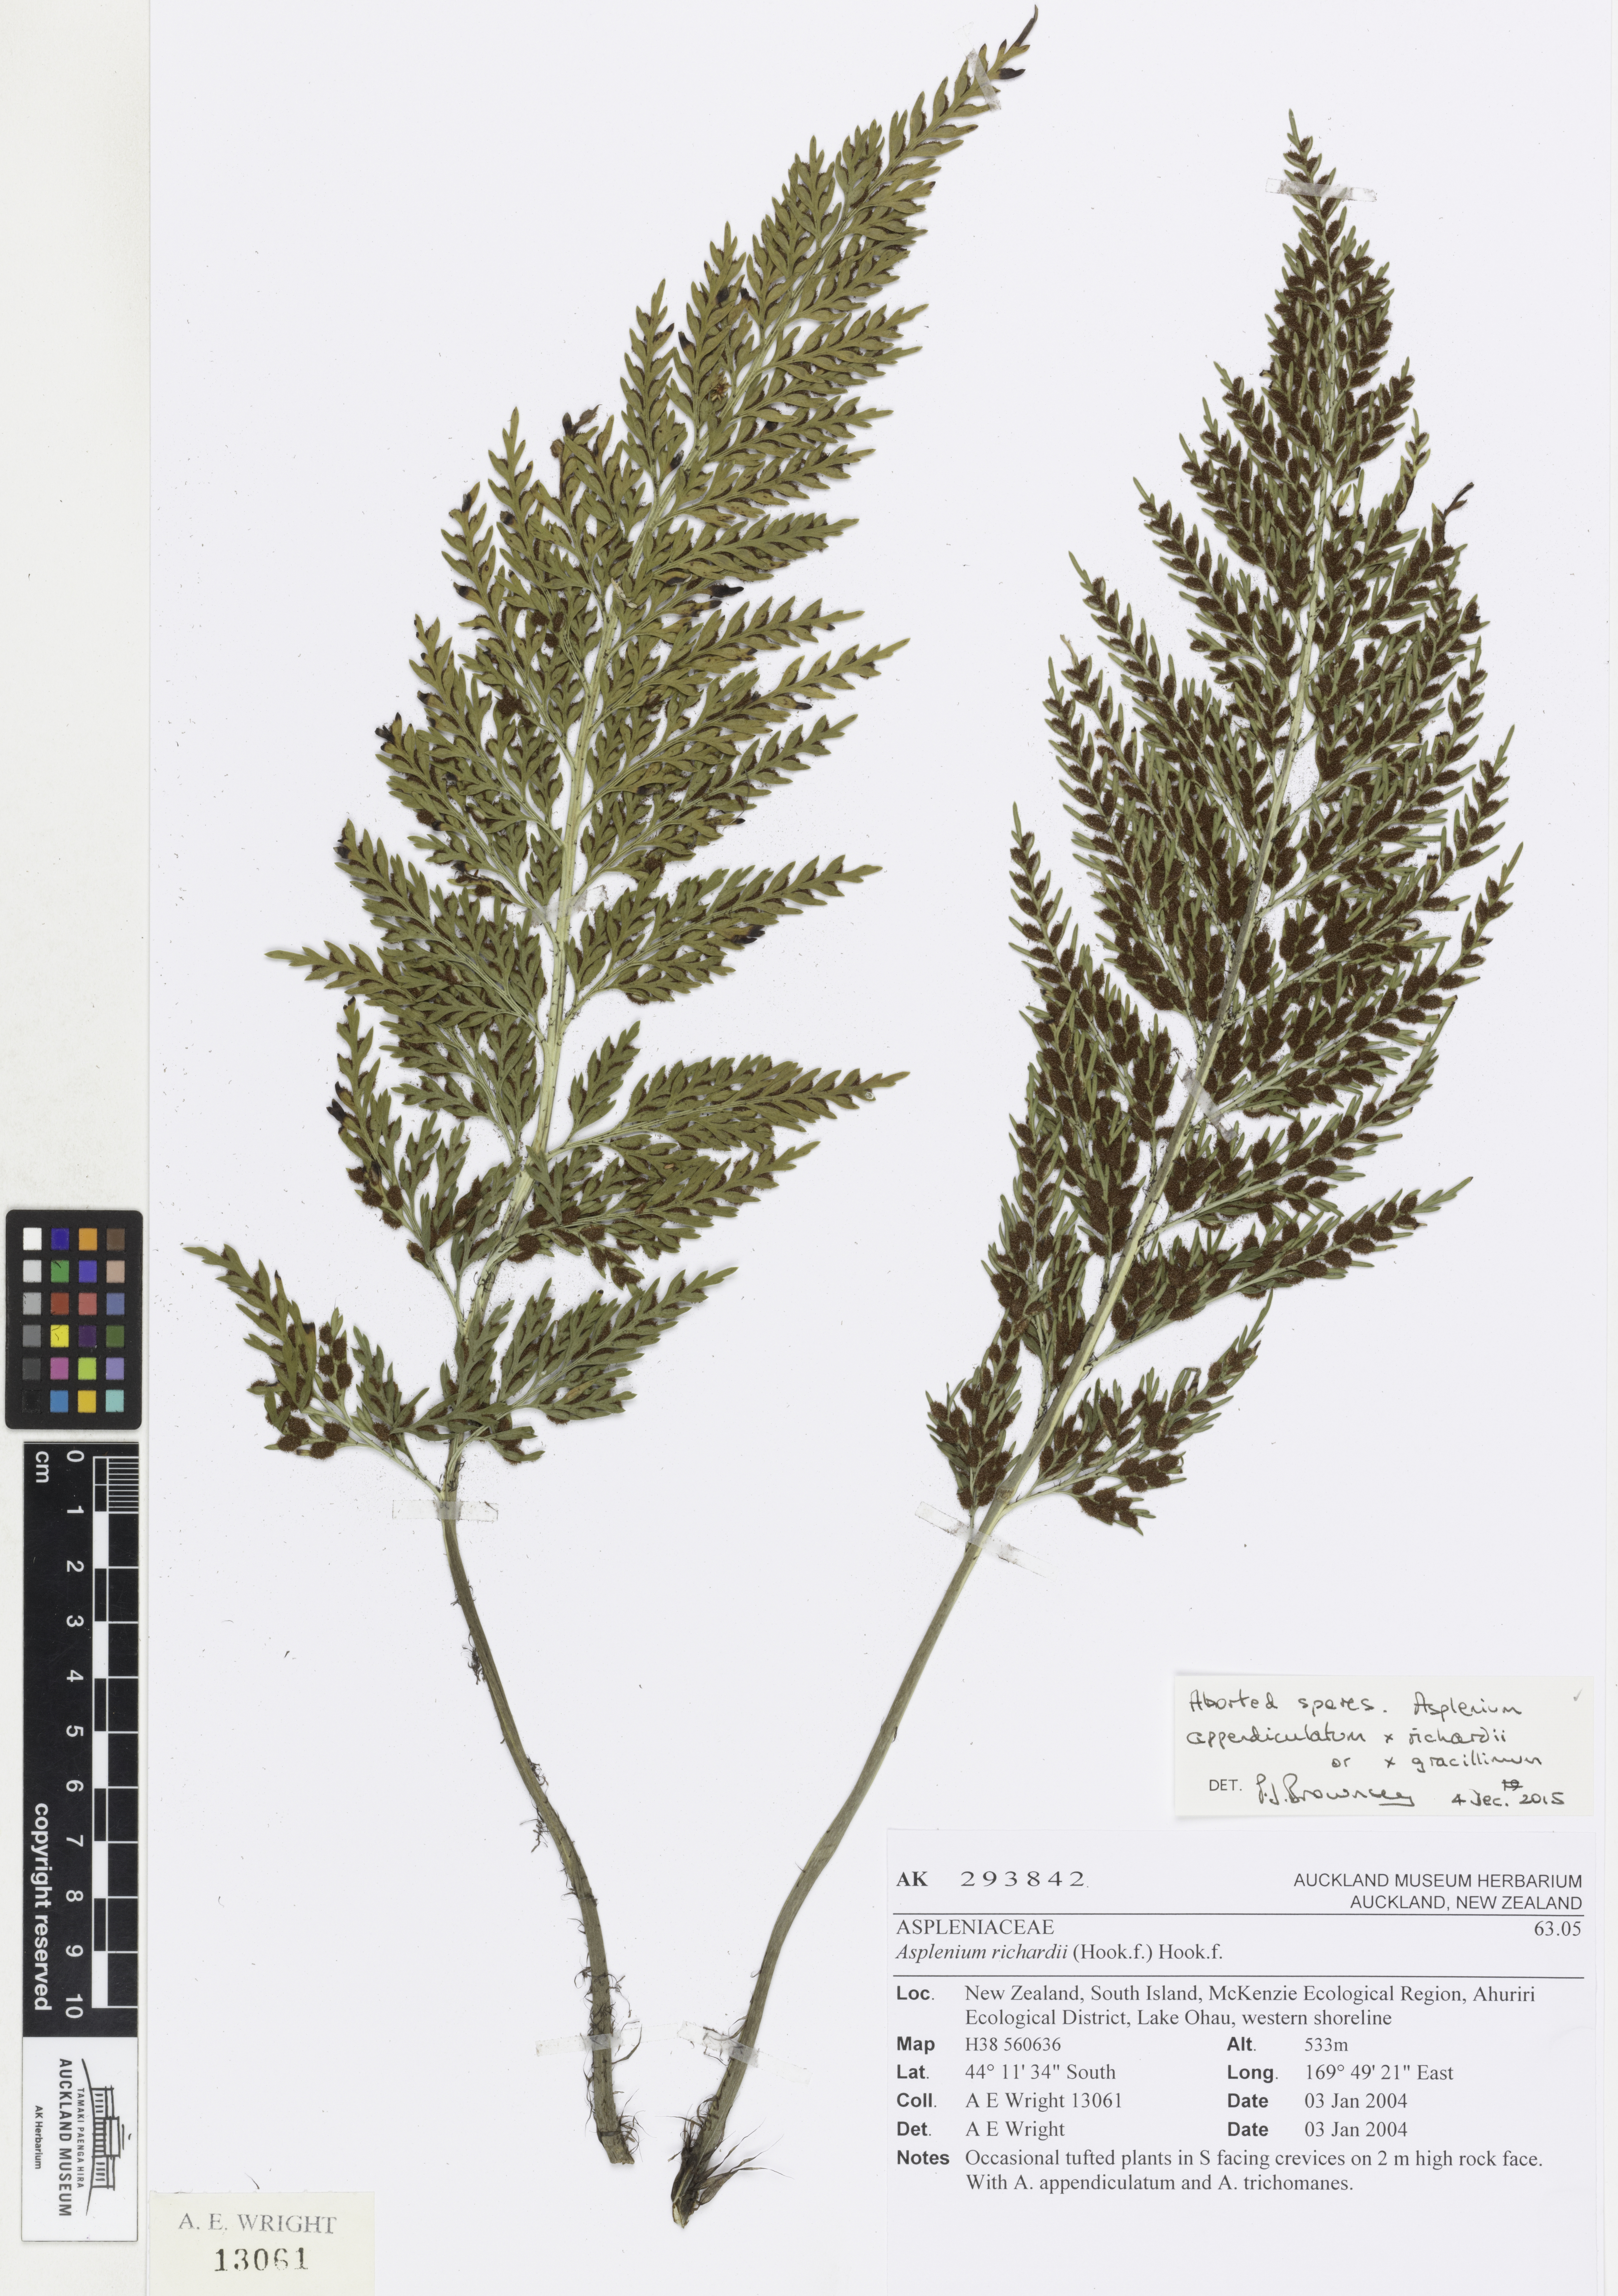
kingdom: Plantae
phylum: Tracheophyta
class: Polypodiopsida
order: Polypodiales
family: Aspleniaceae
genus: Asplenium
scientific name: Asplenium
